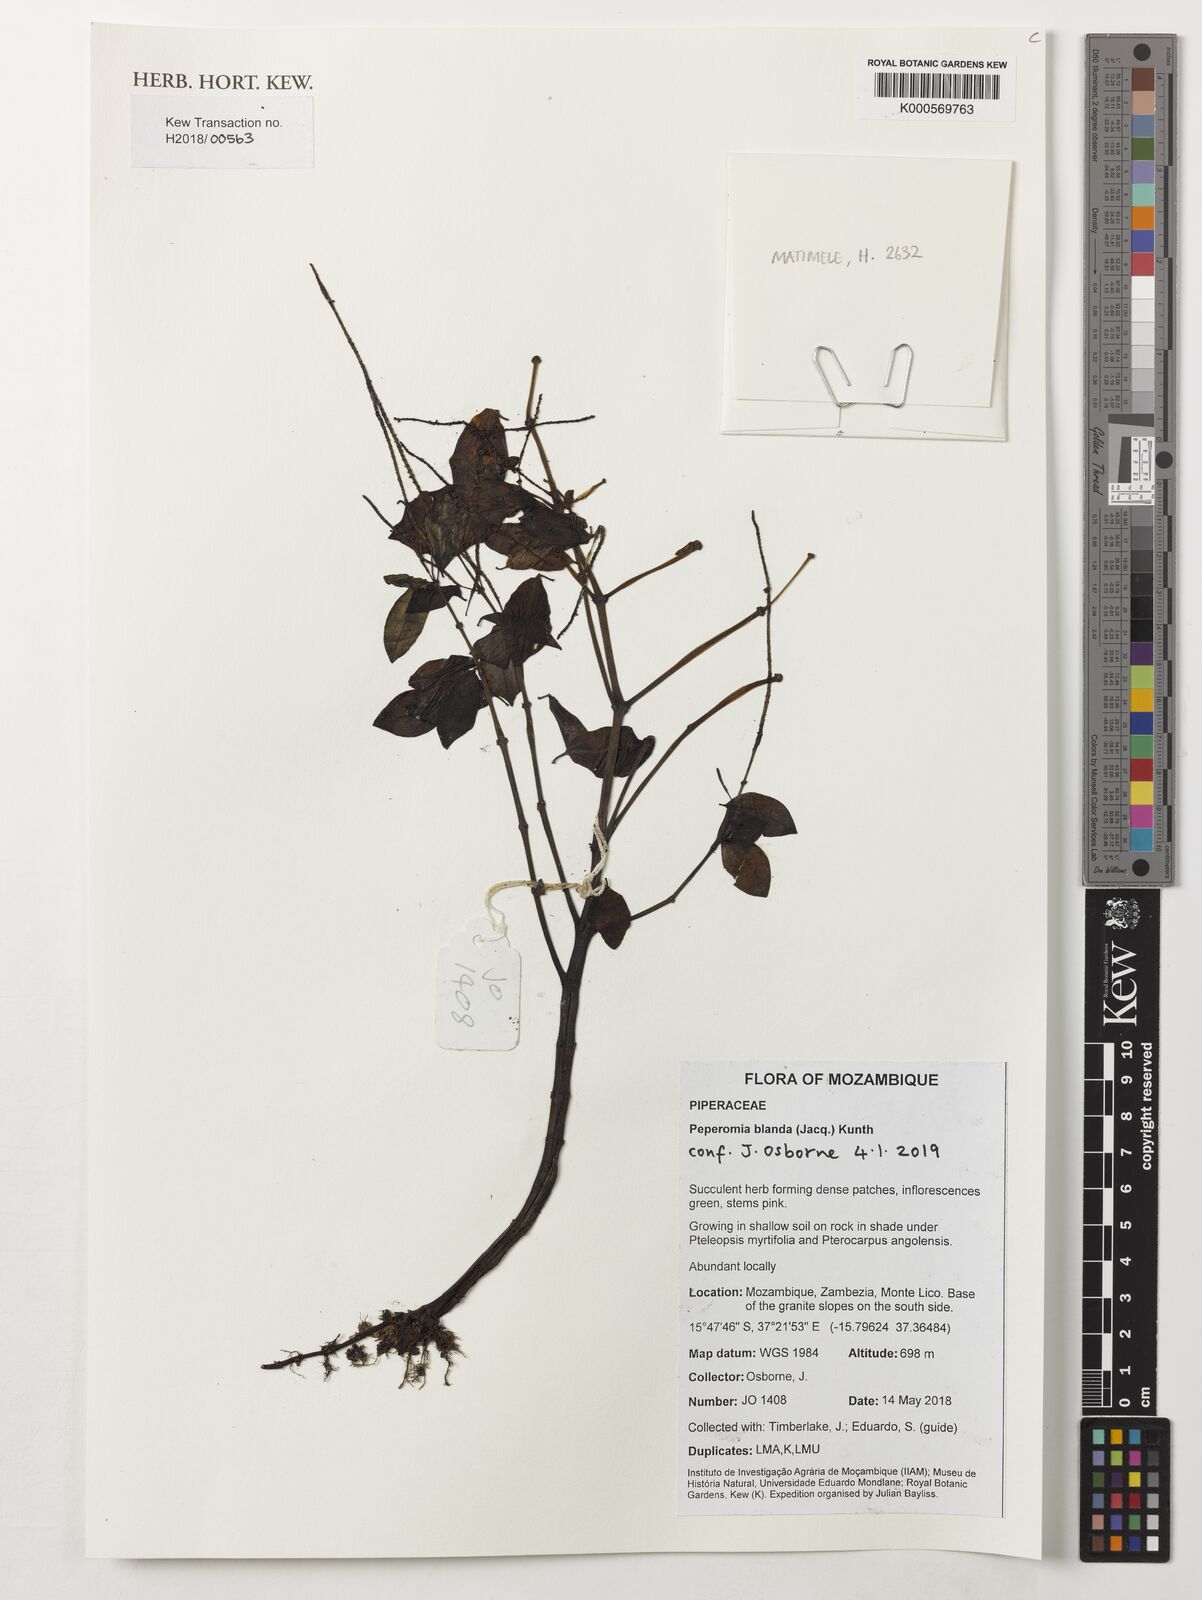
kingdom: Plantae
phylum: Tracheophyta
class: Magnoliopsida
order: Piperales
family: Piperaceae
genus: Peperomia
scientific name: Peperomia blanda
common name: Arid-land peperomia
